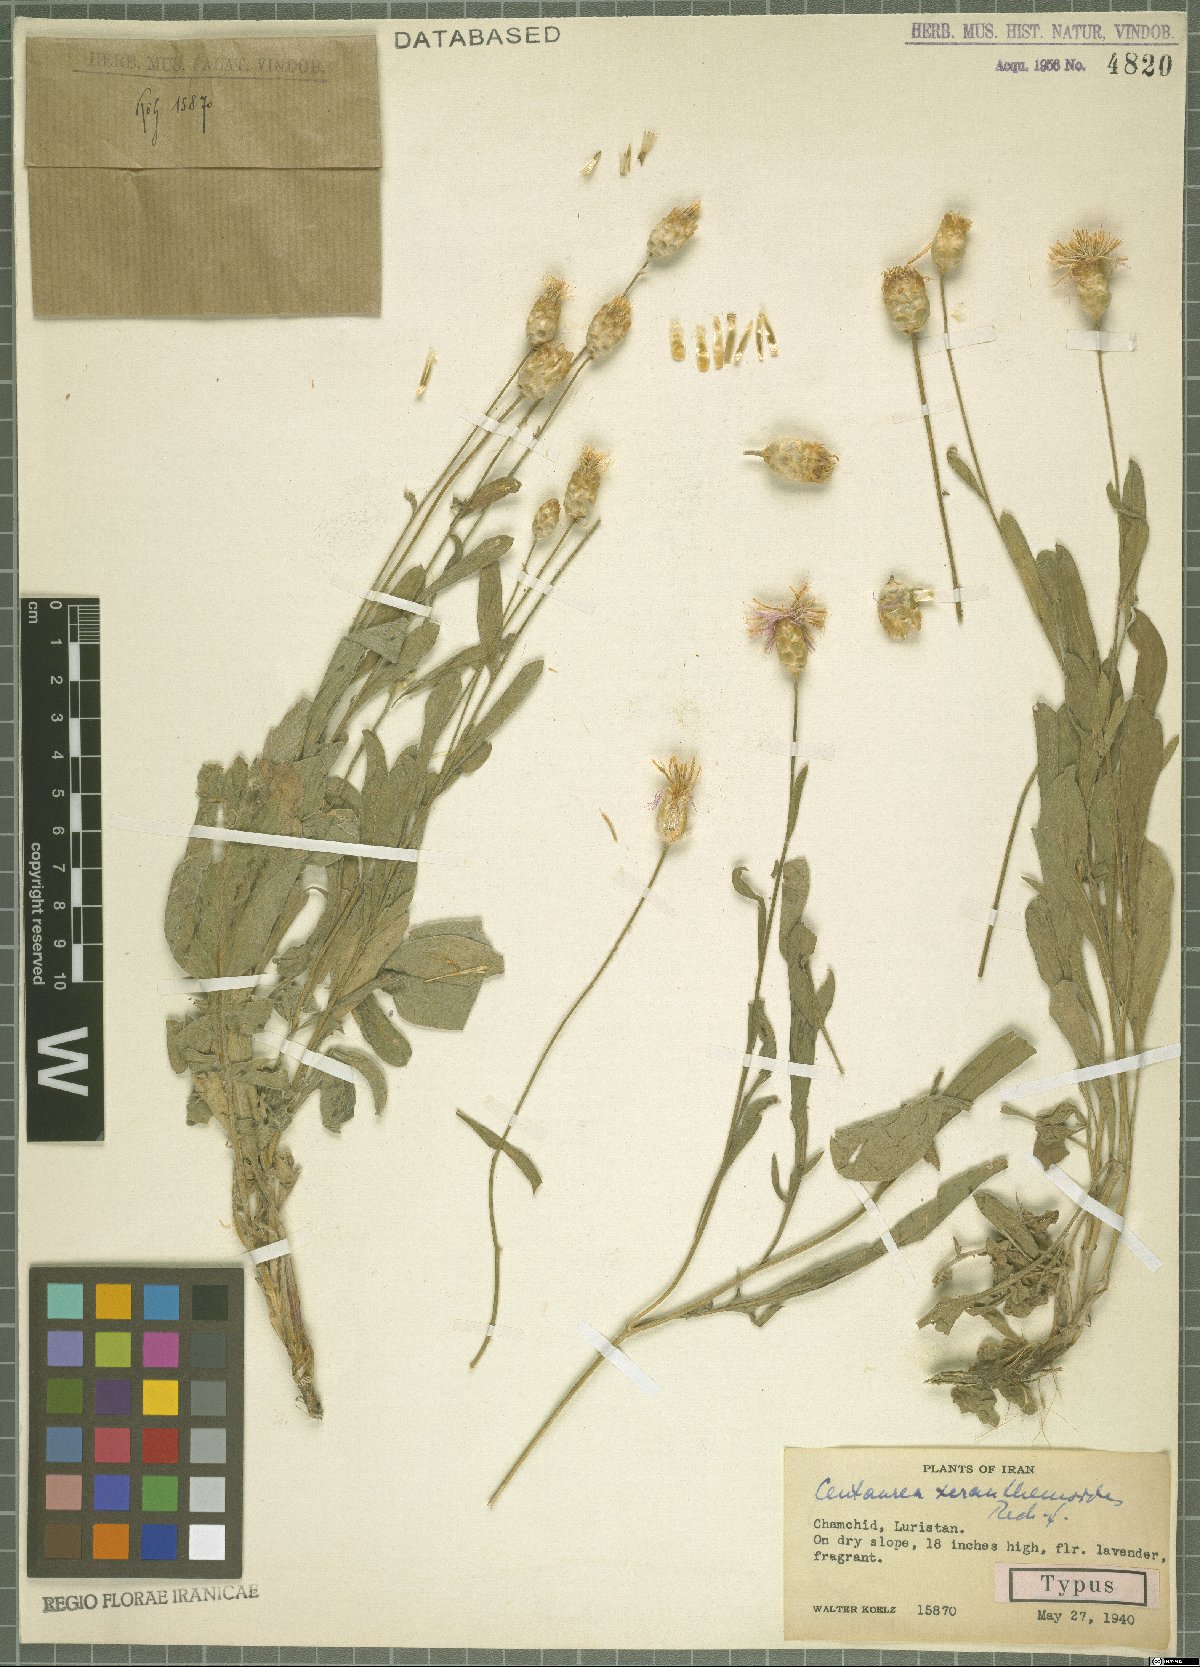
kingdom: Plantae
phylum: Tracheophyta
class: Magnoliopsida
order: Asterales
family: Asteraceae
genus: Psephellus
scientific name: Psephellus xeranthemoides
